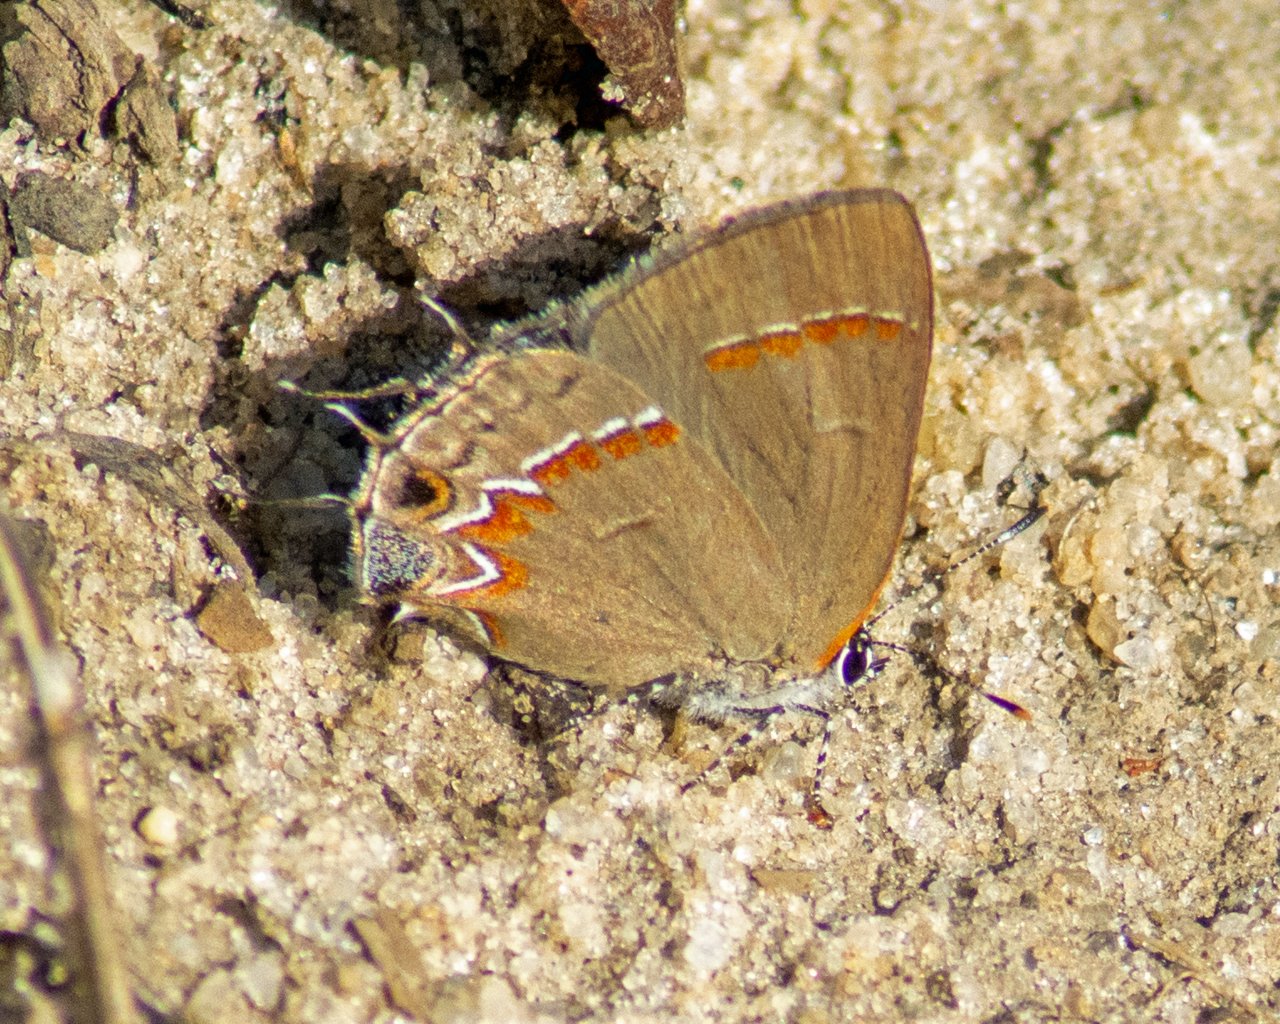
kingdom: Animalia
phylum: Arthropoda
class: Insecta
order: Lepidoptera
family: Lycaenidae
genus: Calycopis
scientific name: Calycopis cecrops
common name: Red-banded Hairstreak
